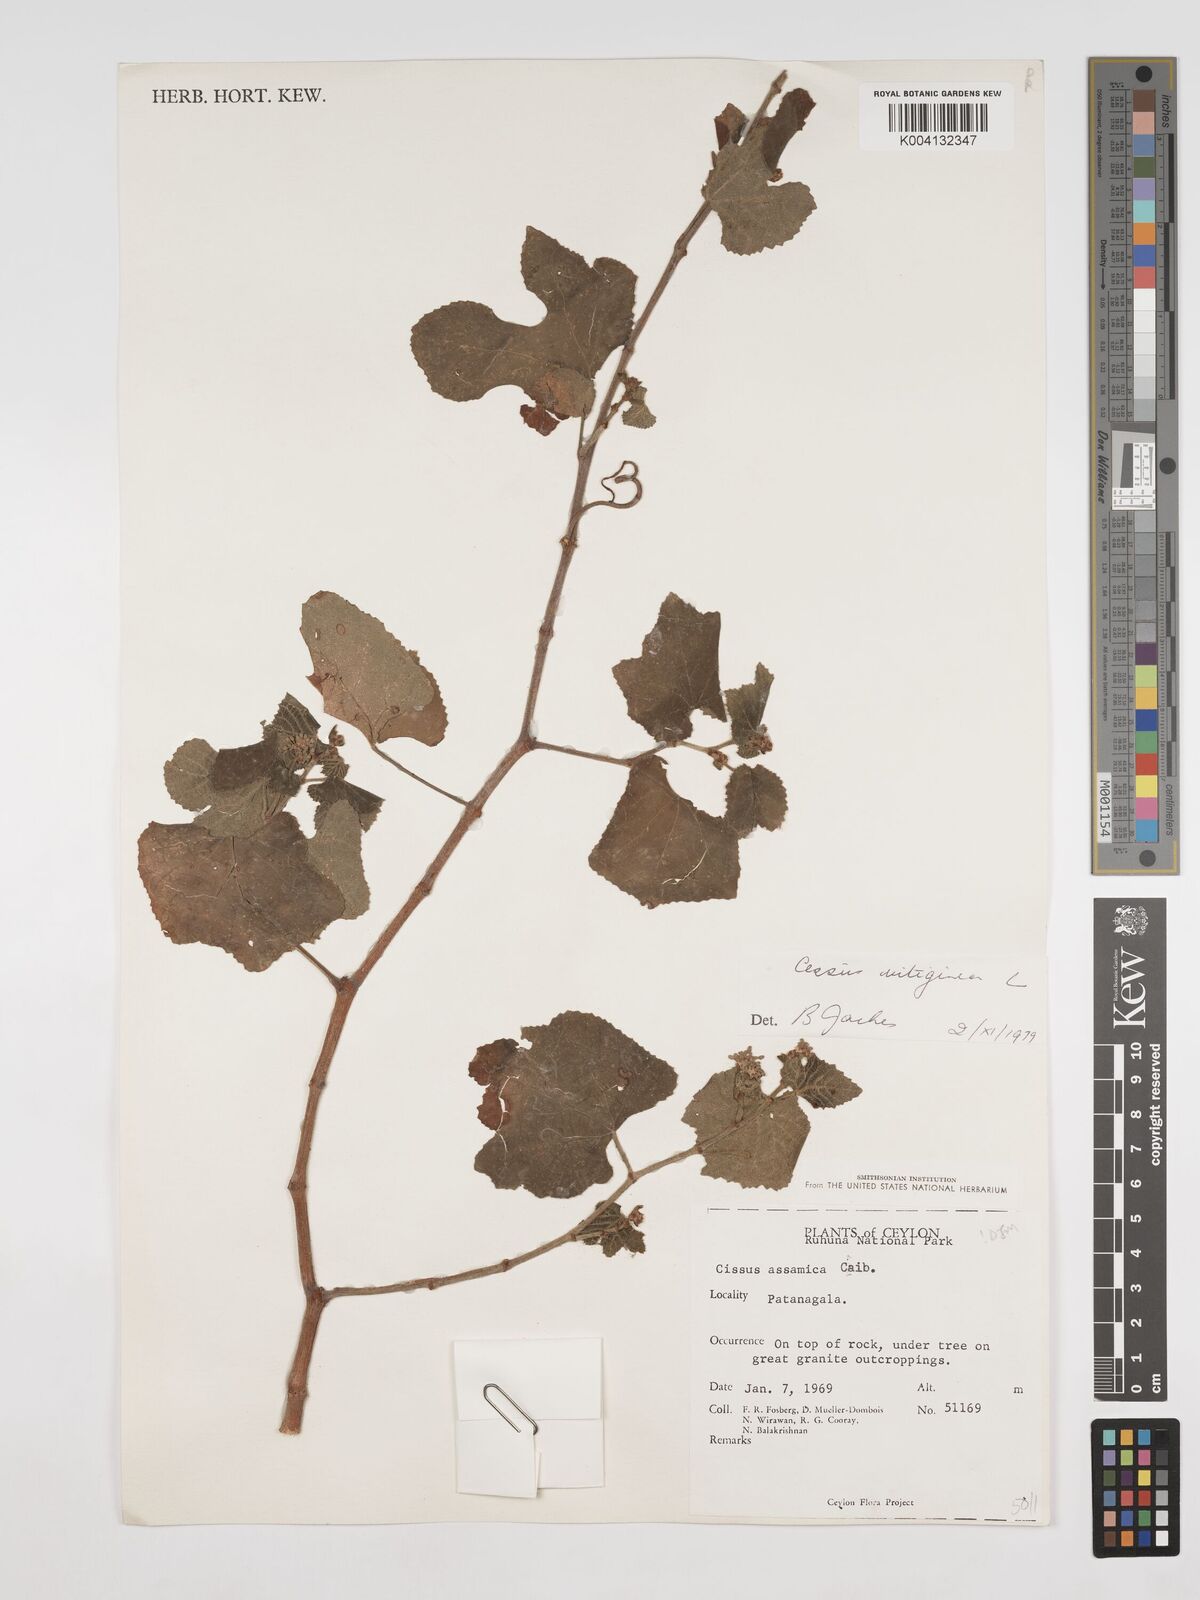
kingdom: Plantae
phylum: Tracheophyta
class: Magnoliopsida
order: Vitales
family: Vitaceae
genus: Cissus
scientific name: Cissus vitiginea
